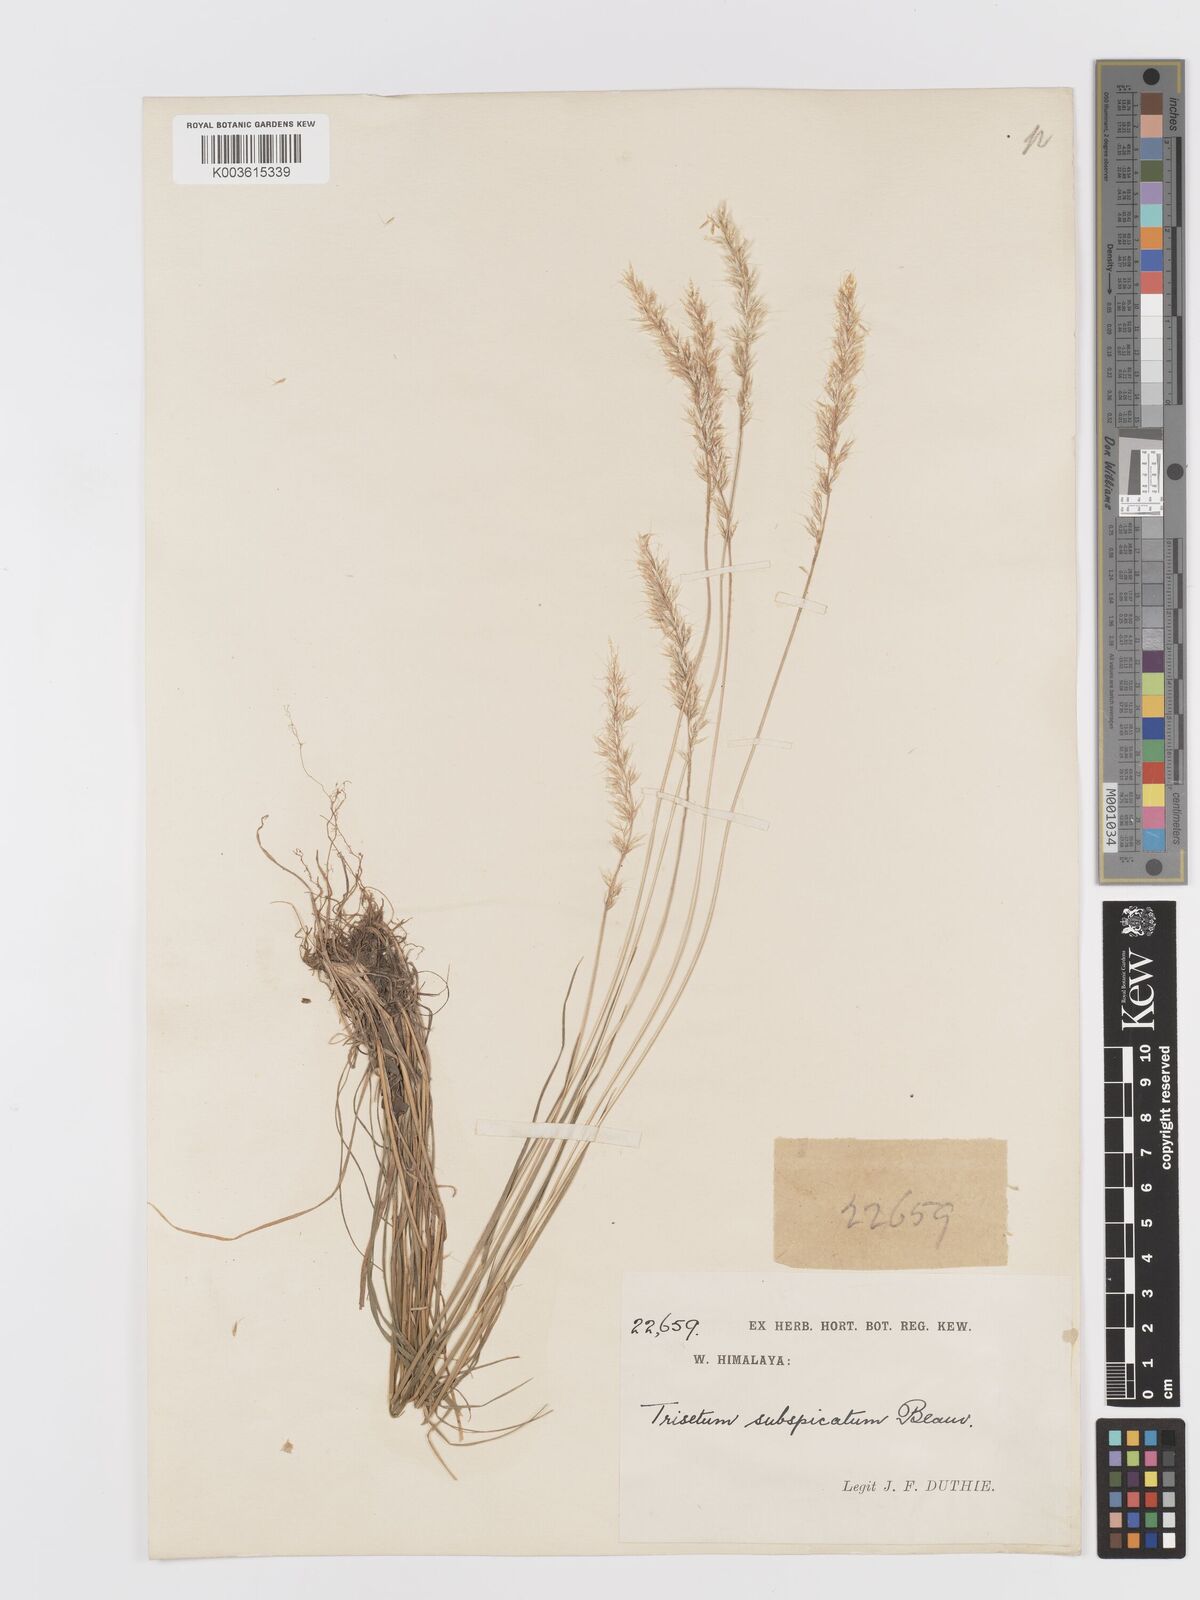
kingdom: Plantae
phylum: Tracheophyta
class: Liliopsida
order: Poales
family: Poaceae
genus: Trisetum
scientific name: Trisetum clarkei
